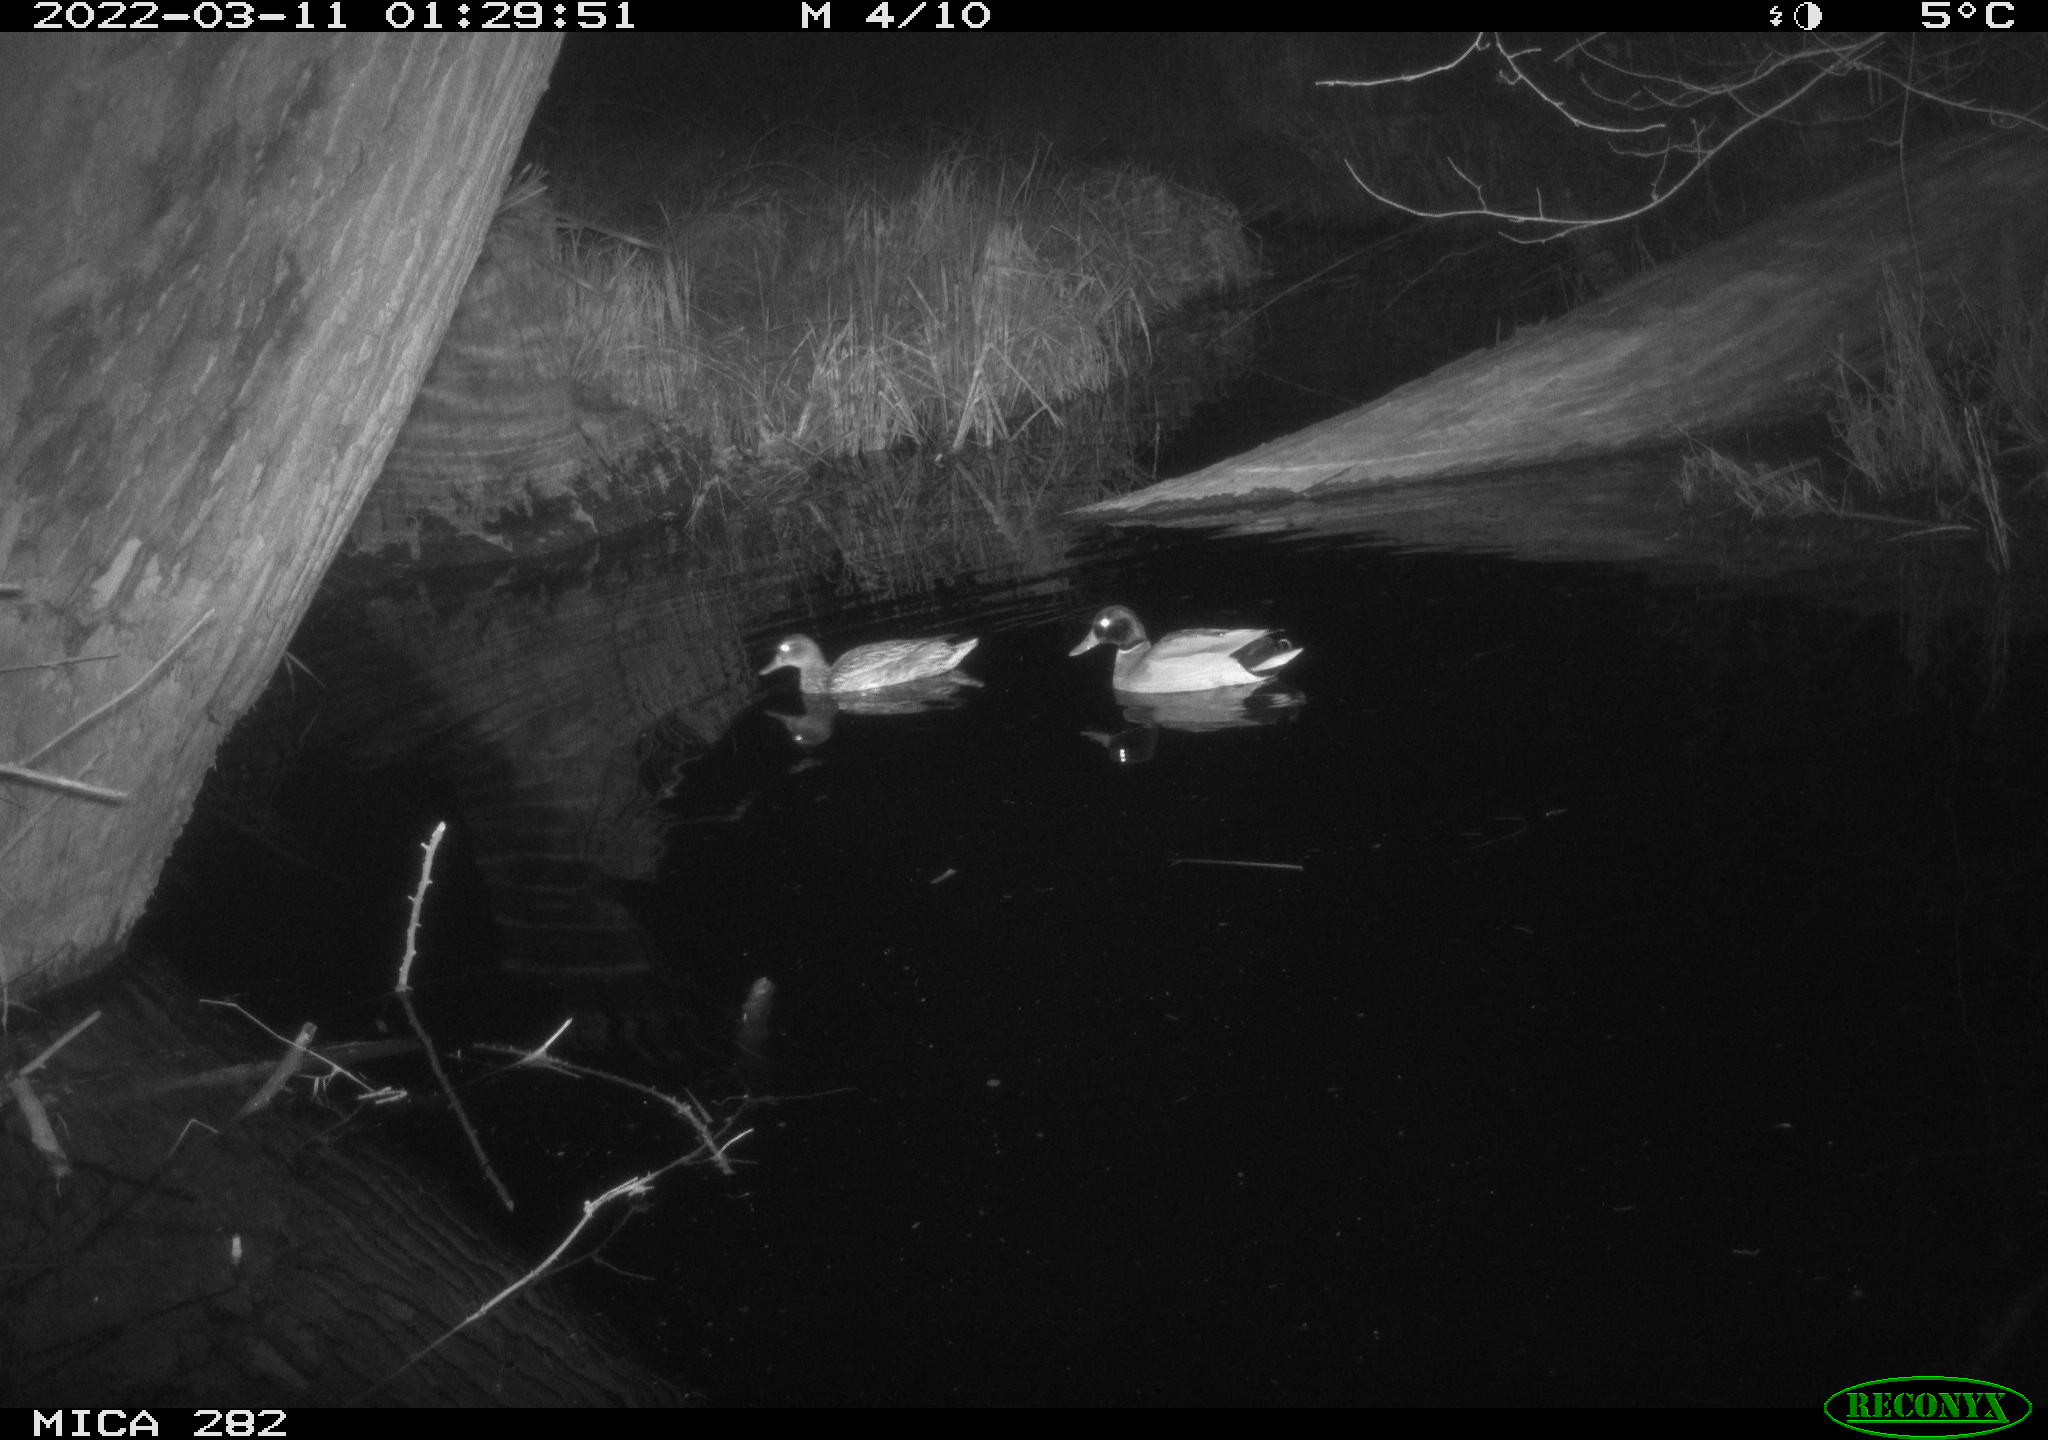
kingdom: Animalia
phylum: Chordata
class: Aves
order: Anseriformes
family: Anatidae
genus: Anas
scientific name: Anas platyrhynchos
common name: Mallard
